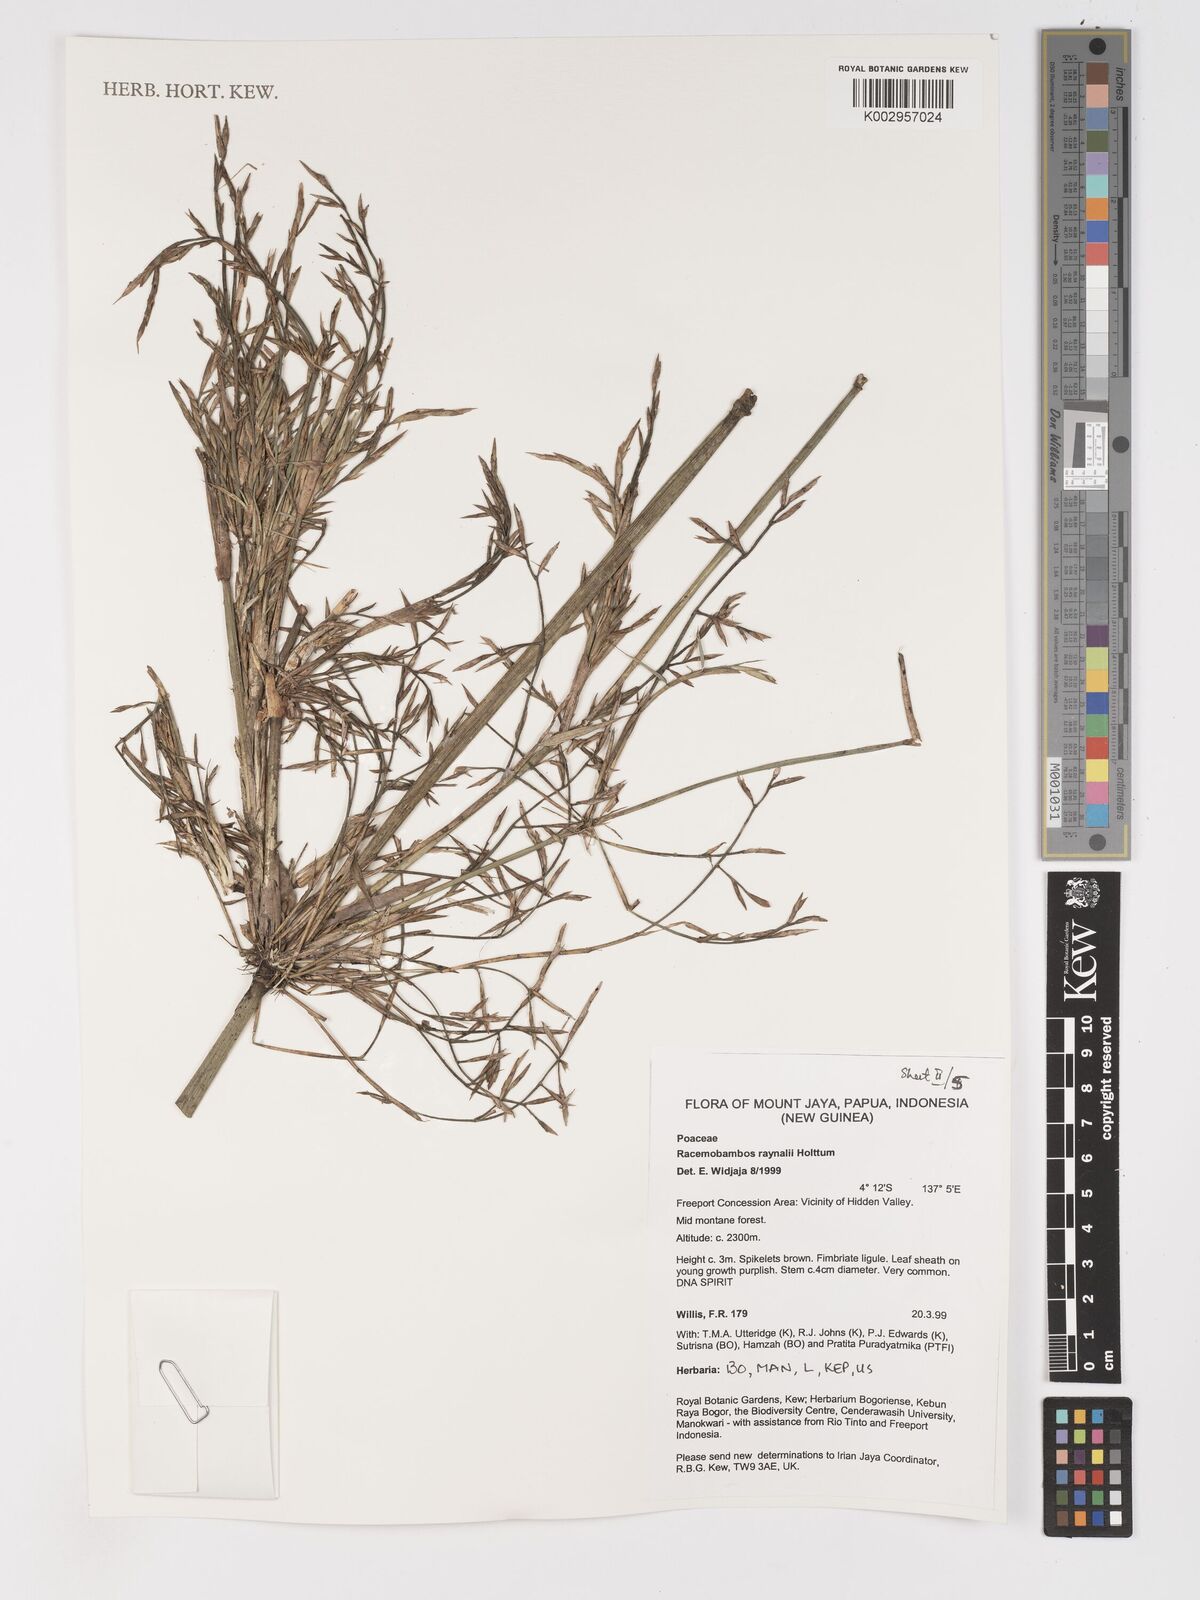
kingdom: Plantae
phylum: Tracheophyta
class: Liliopsida
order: Poales
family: Poaceae
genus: Racemobambos
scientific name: Racemobambos raynalii
